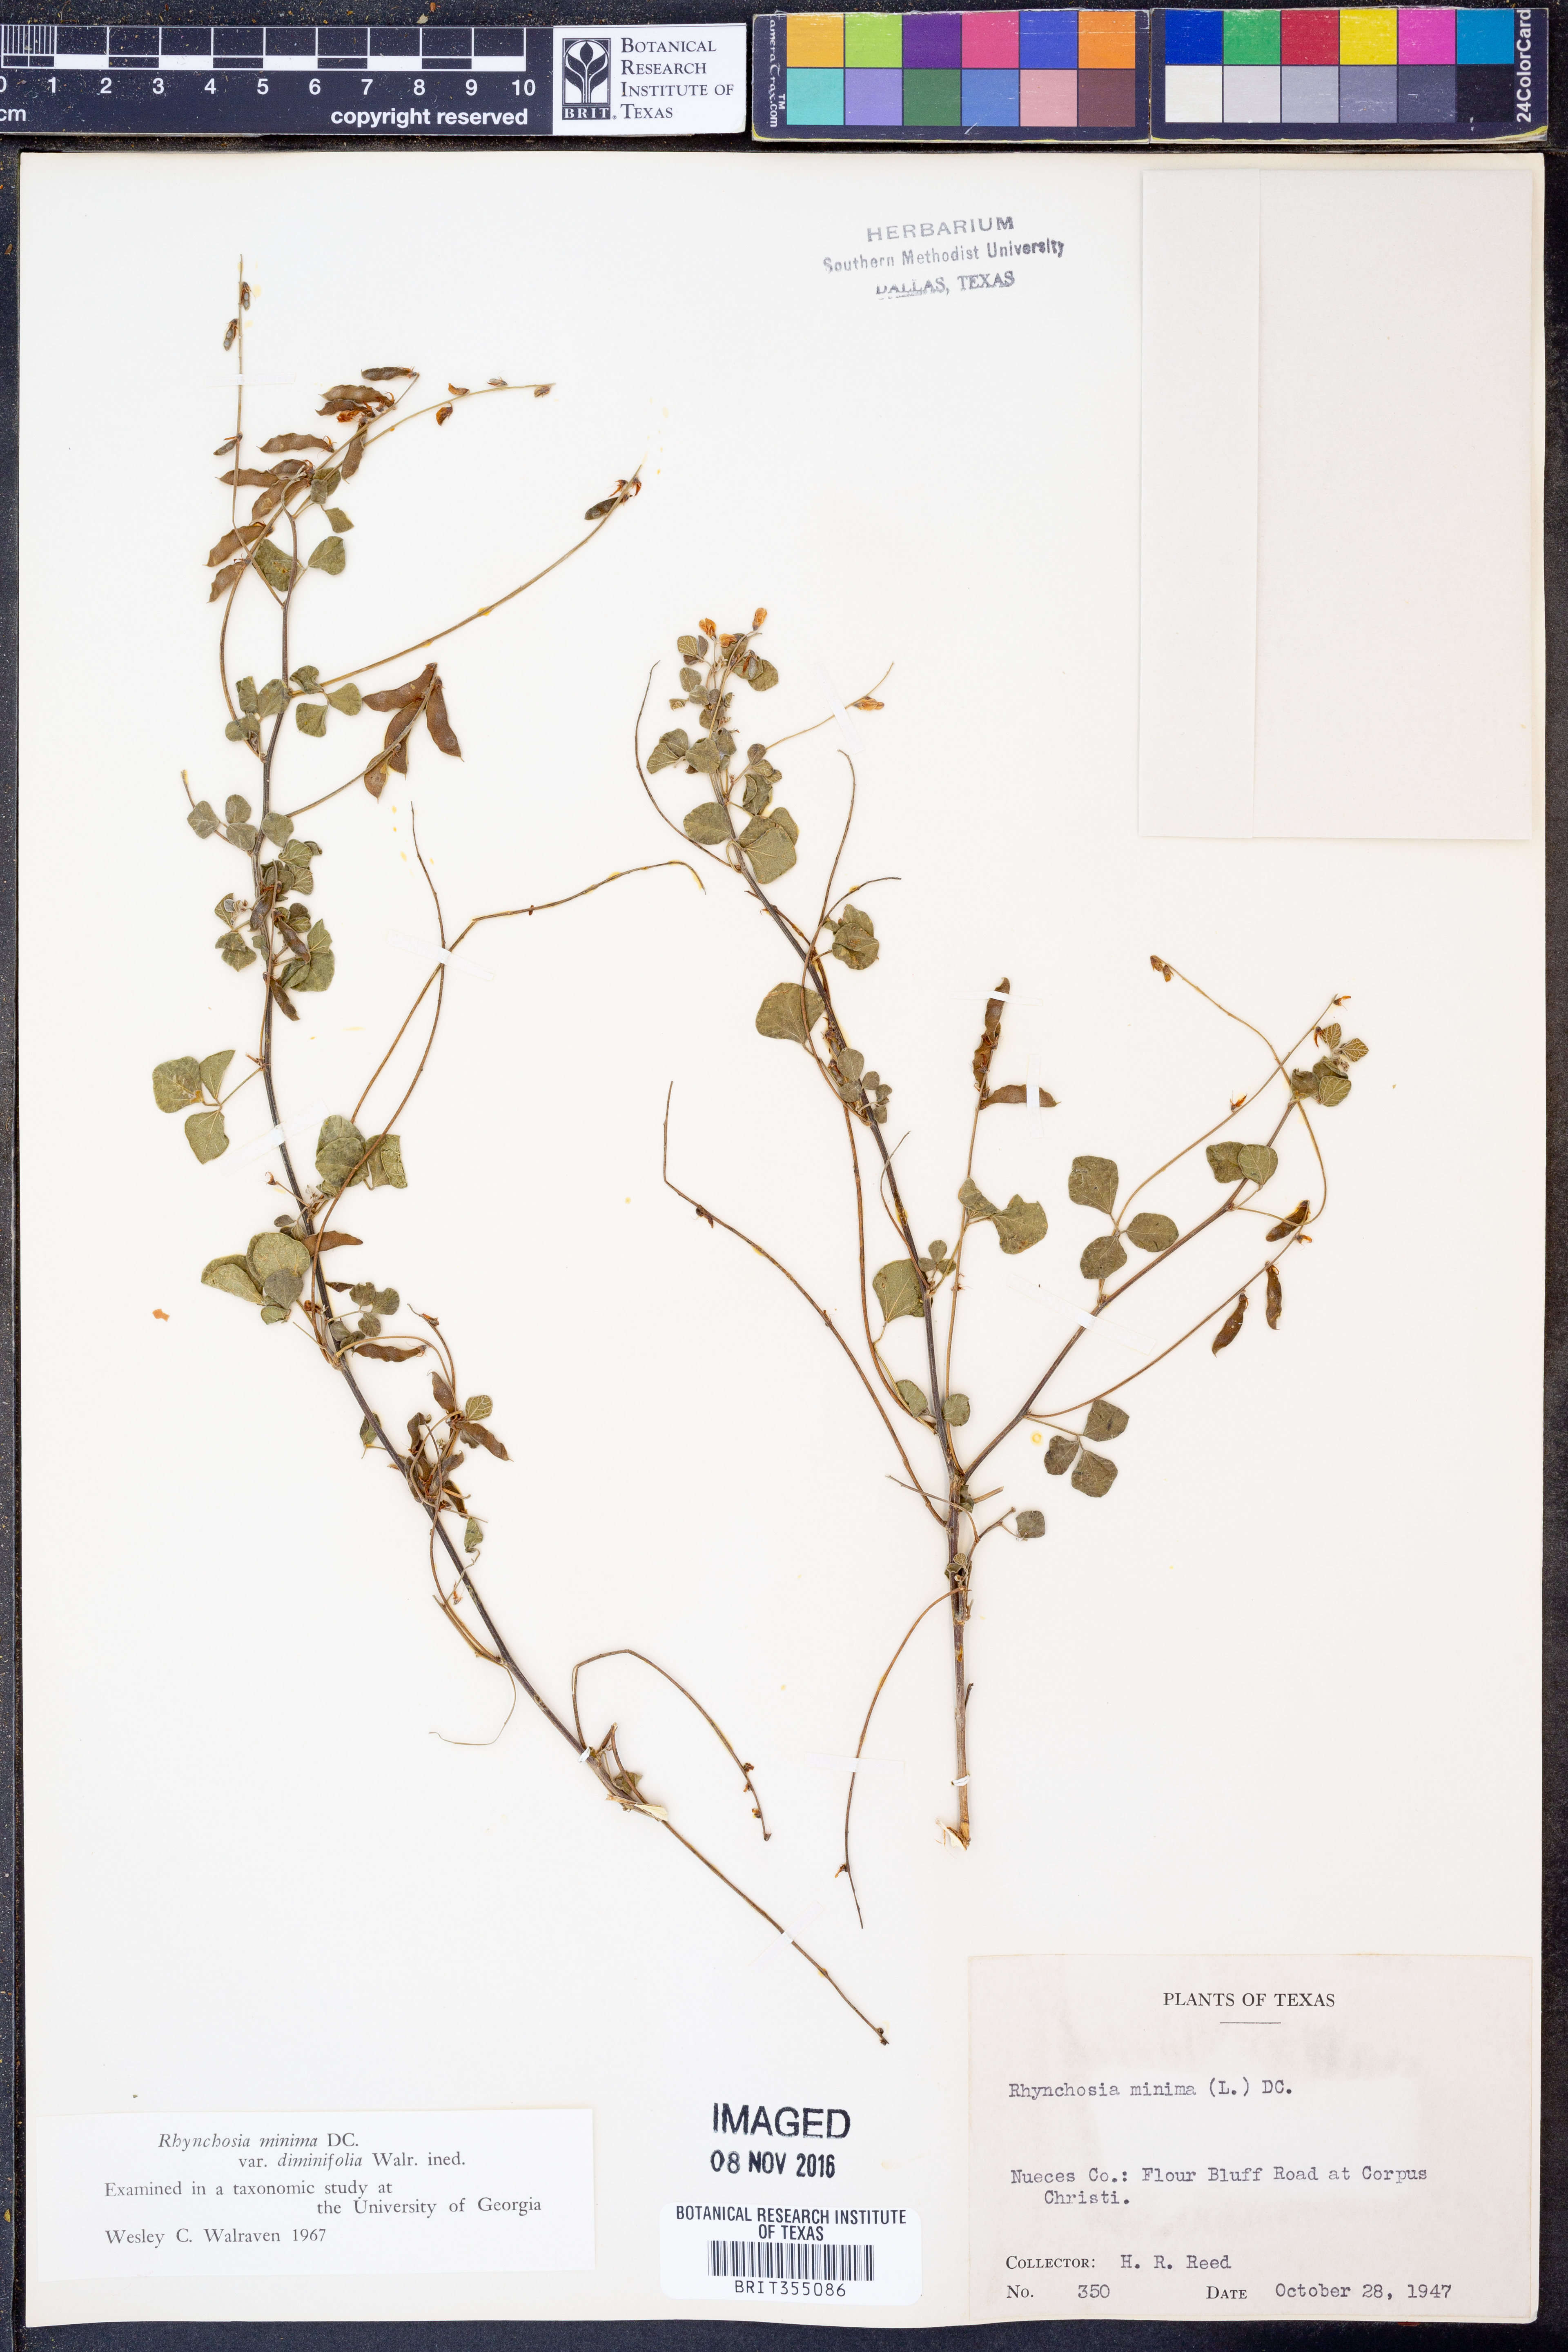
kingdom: Plantae
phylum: Tracheophyta
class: Magnoliopsida
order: Fabales
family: Fabaceae
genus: Rhynchosia
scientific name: Rhynchosia minima
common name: Least snoutbean
